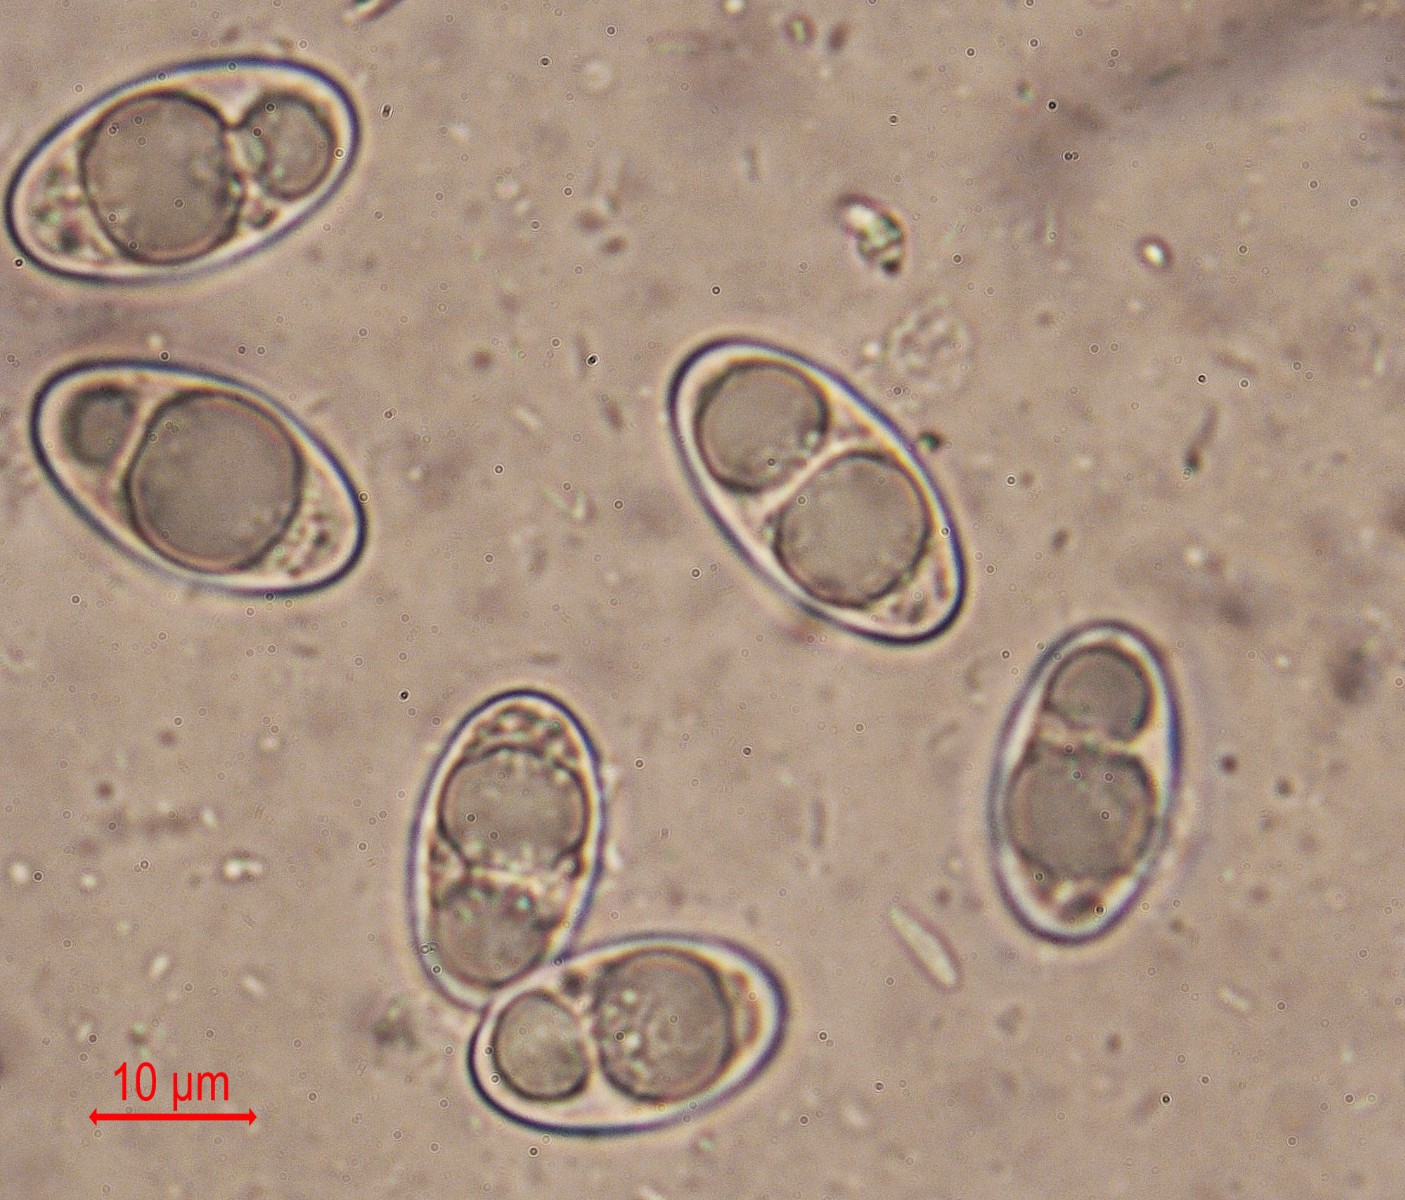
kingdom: Fungi
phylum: Ascomycota
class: Pezizomycetes
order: Pezizales
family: Pyronemataceae
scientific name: Pyronemataceae
